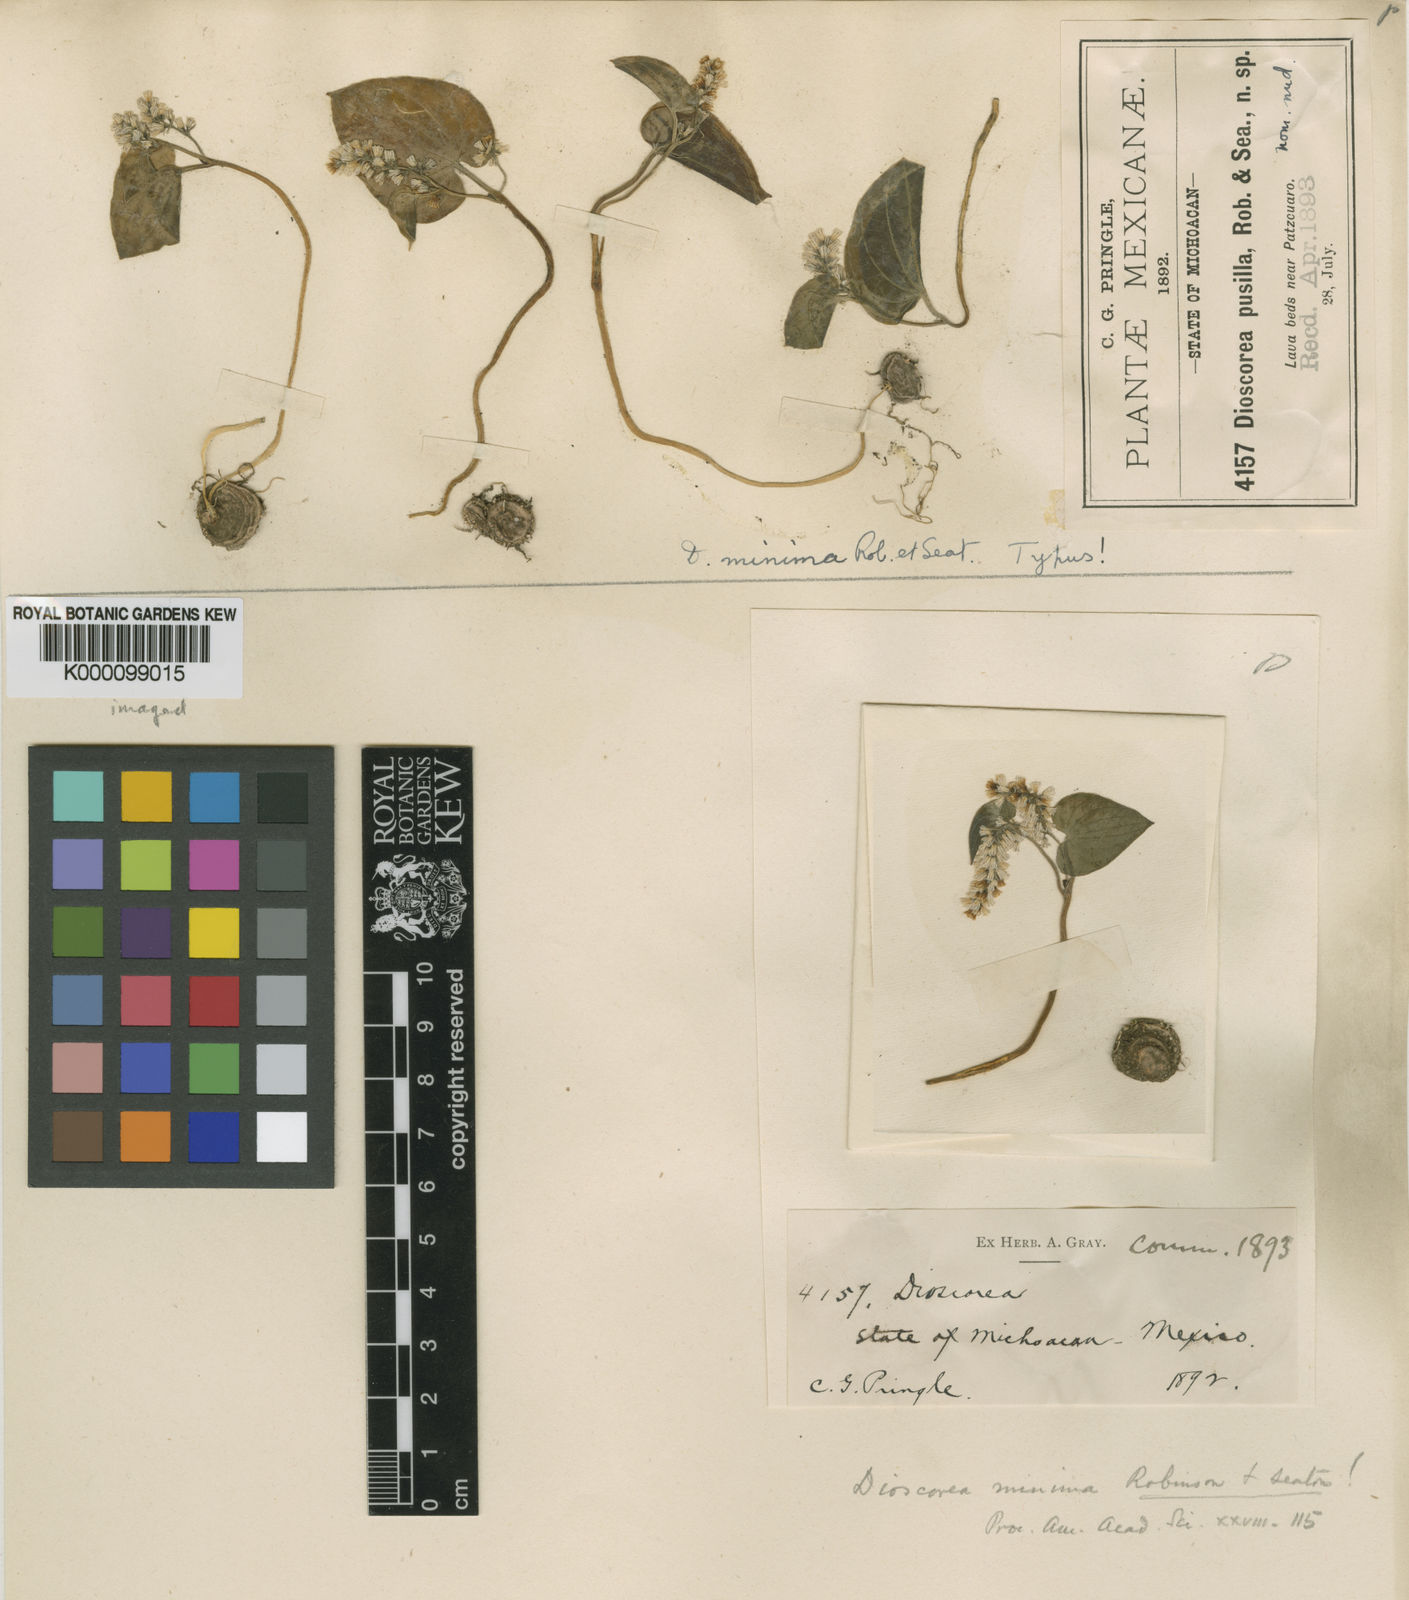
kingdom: Plantae
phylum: Tracheophyta
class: Liliopsida
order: Dioscoreales
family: Dioscoreaceae
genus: Dioscorea
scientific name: Dioscorea minima
